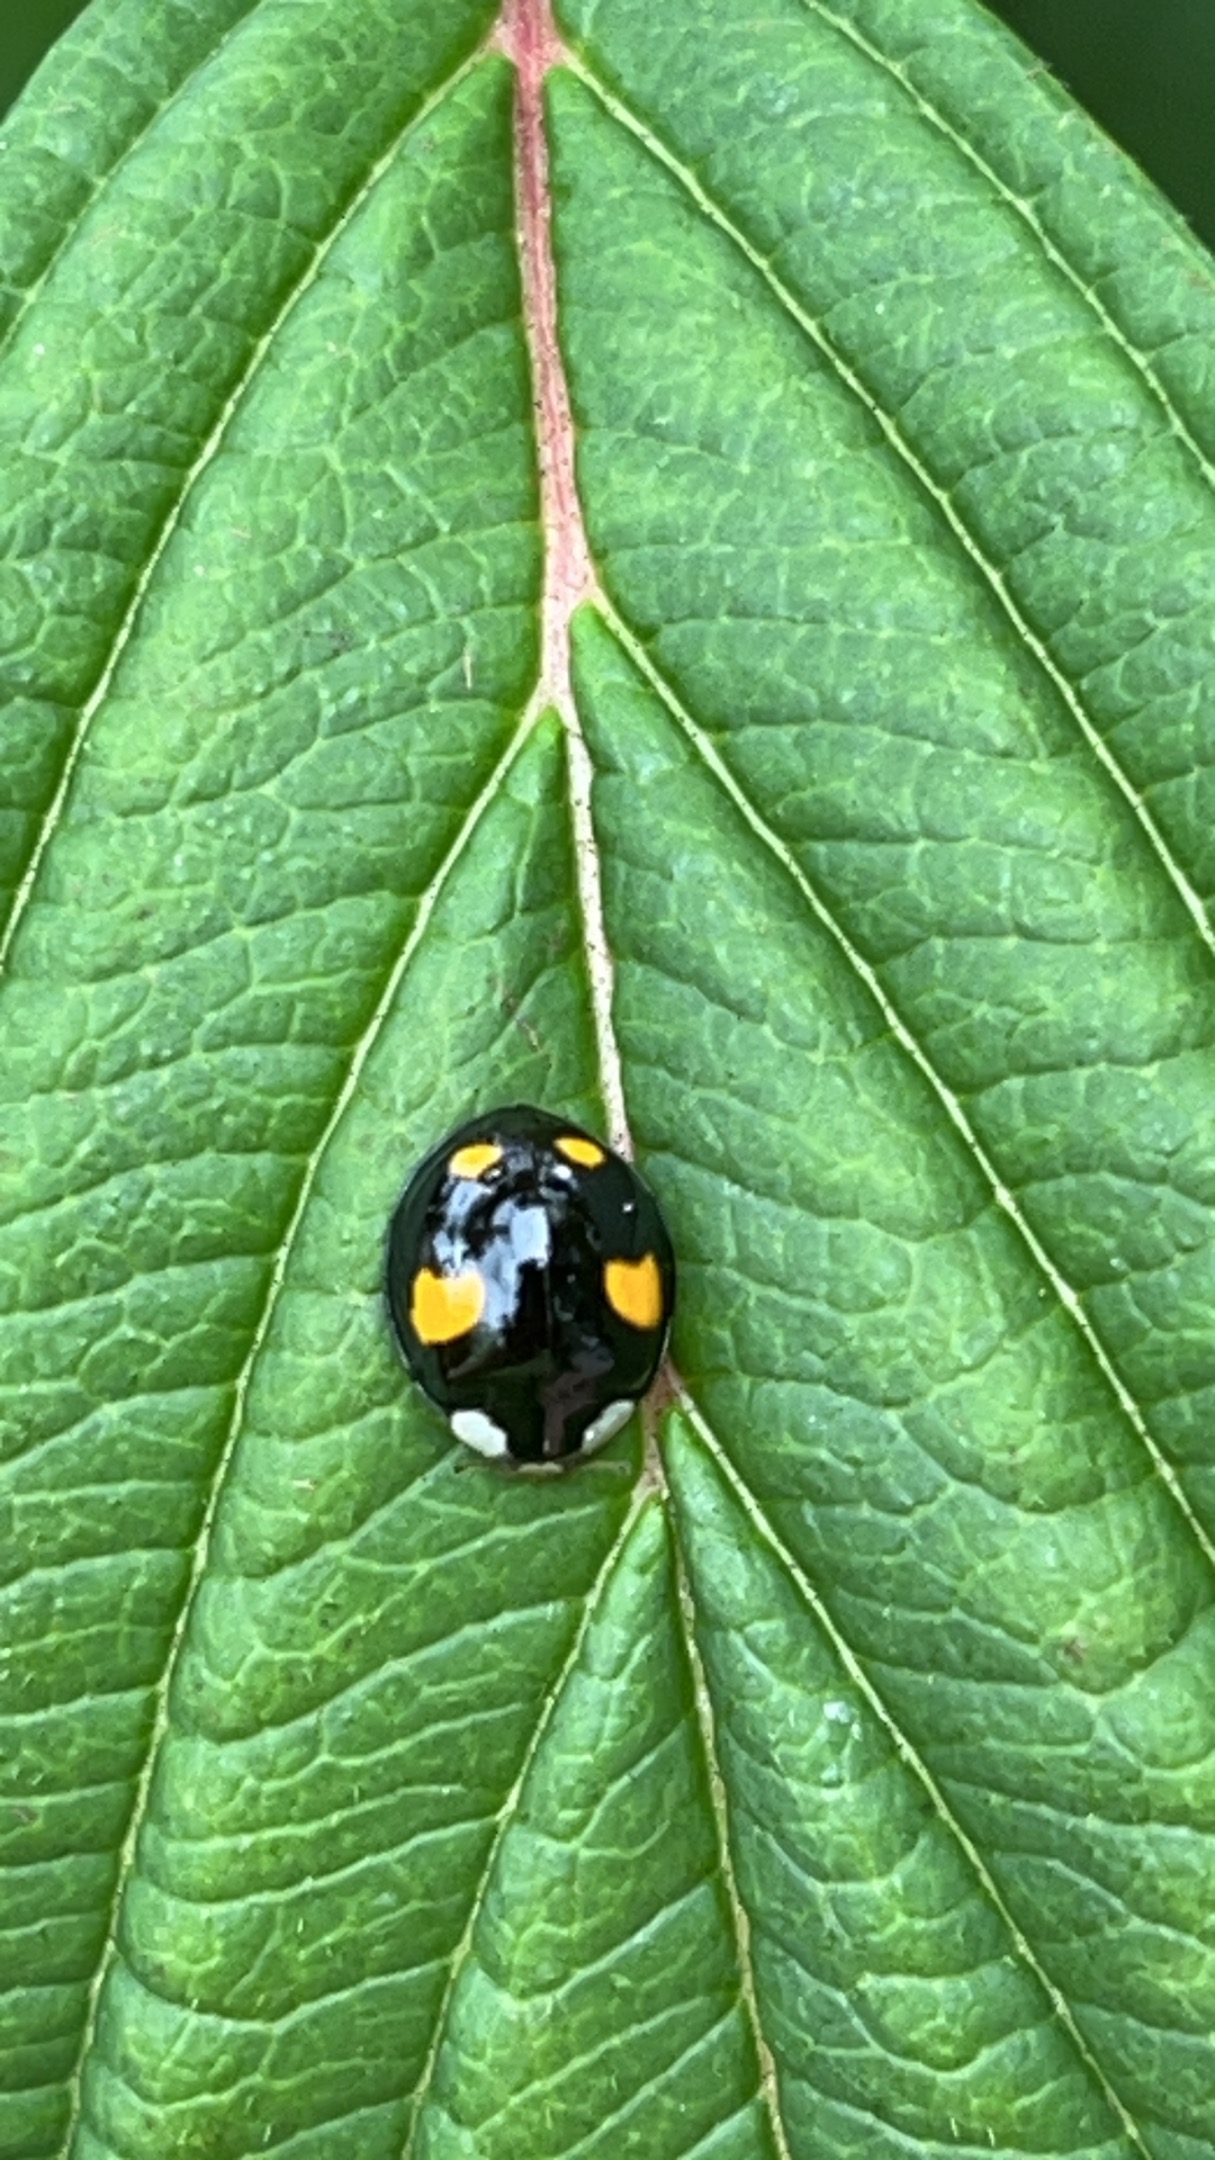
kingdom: Animalia
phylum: Arthropoda
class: Insecta
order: Coleoptera
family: Coccinellidae
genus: Harmonia
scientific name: Harmonia axyridis
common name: Harlekinmariehøne
